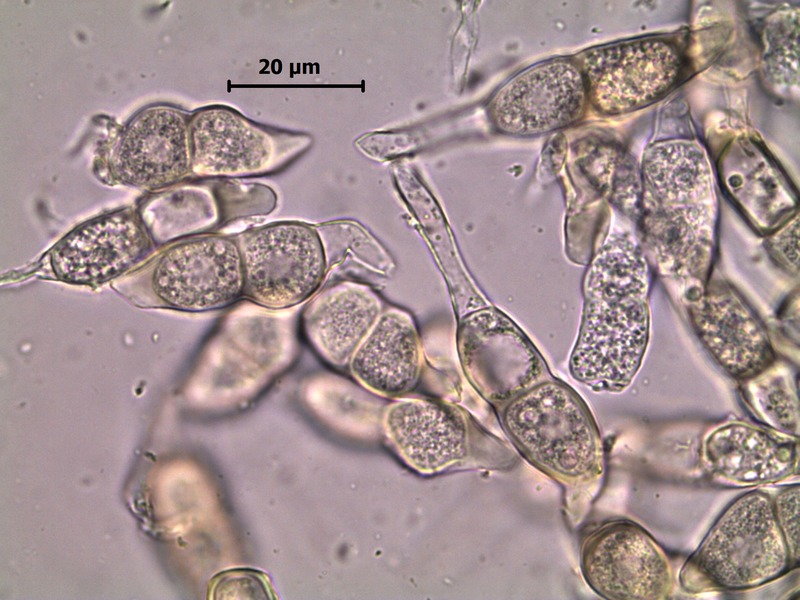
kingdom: Fungi
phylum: Basidiomycota
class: Pucciniomycetes
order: Pucciniales
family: Pucciniaceae
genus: Puccinia
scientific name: Puccinia circaeae
